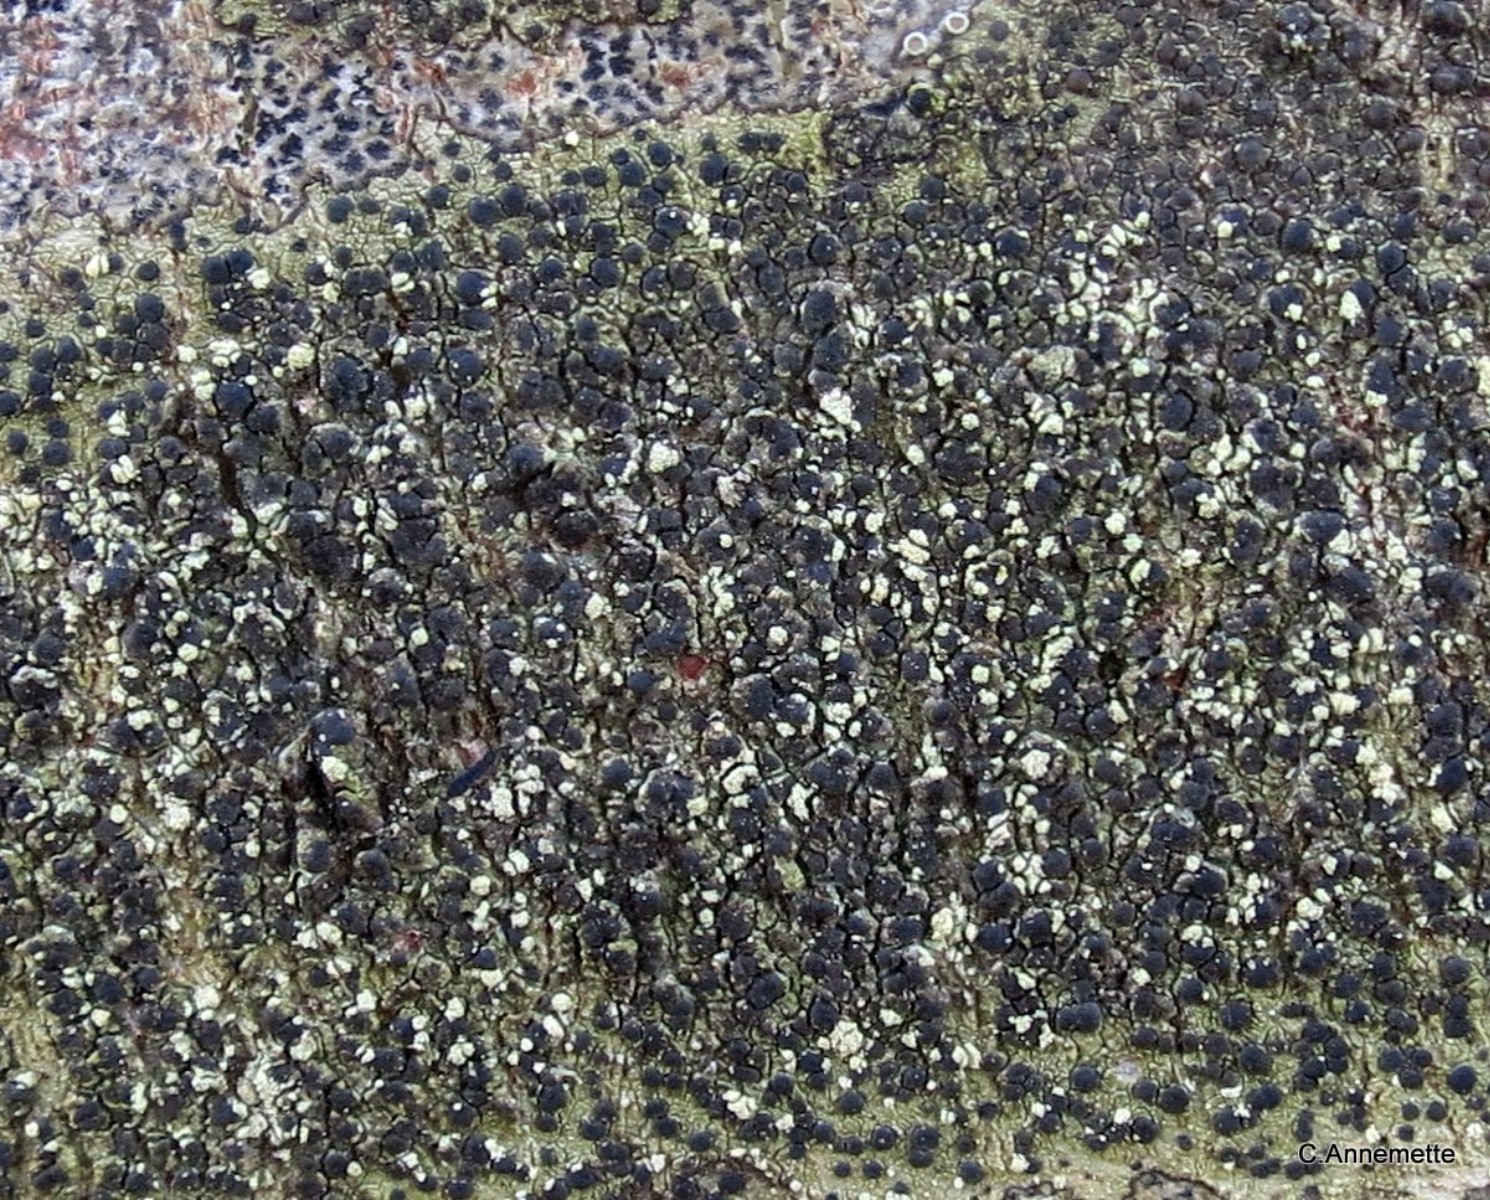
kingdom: Fungi
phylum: Ascomycota
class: Lecanoromycetes
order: Lecanorales
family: Lecanoraceae
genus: Lecidella
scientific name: Lecidella elaeochroma
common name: grågrøn skivelav
